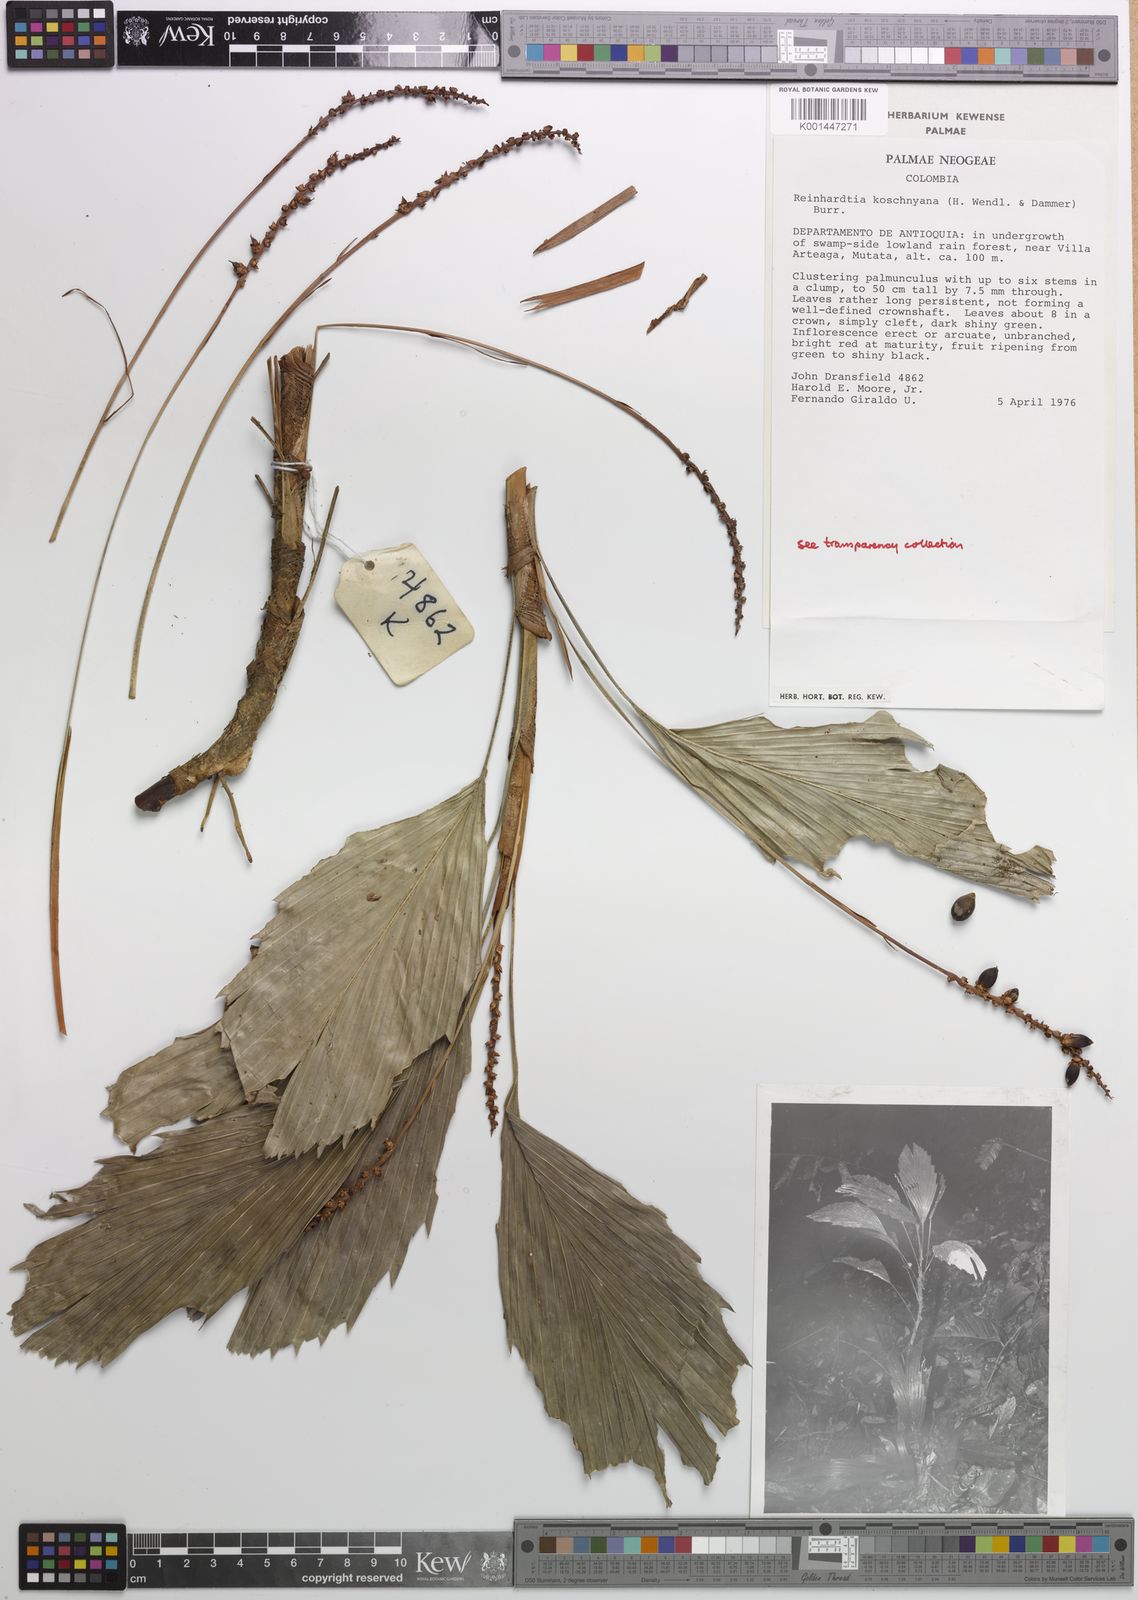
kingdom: Plantae
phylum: Tracheophyta
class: Liliopsida
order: Arecales
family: Arecaceae
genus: Reinhardtia
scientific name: Reinhardtia koschnyana
